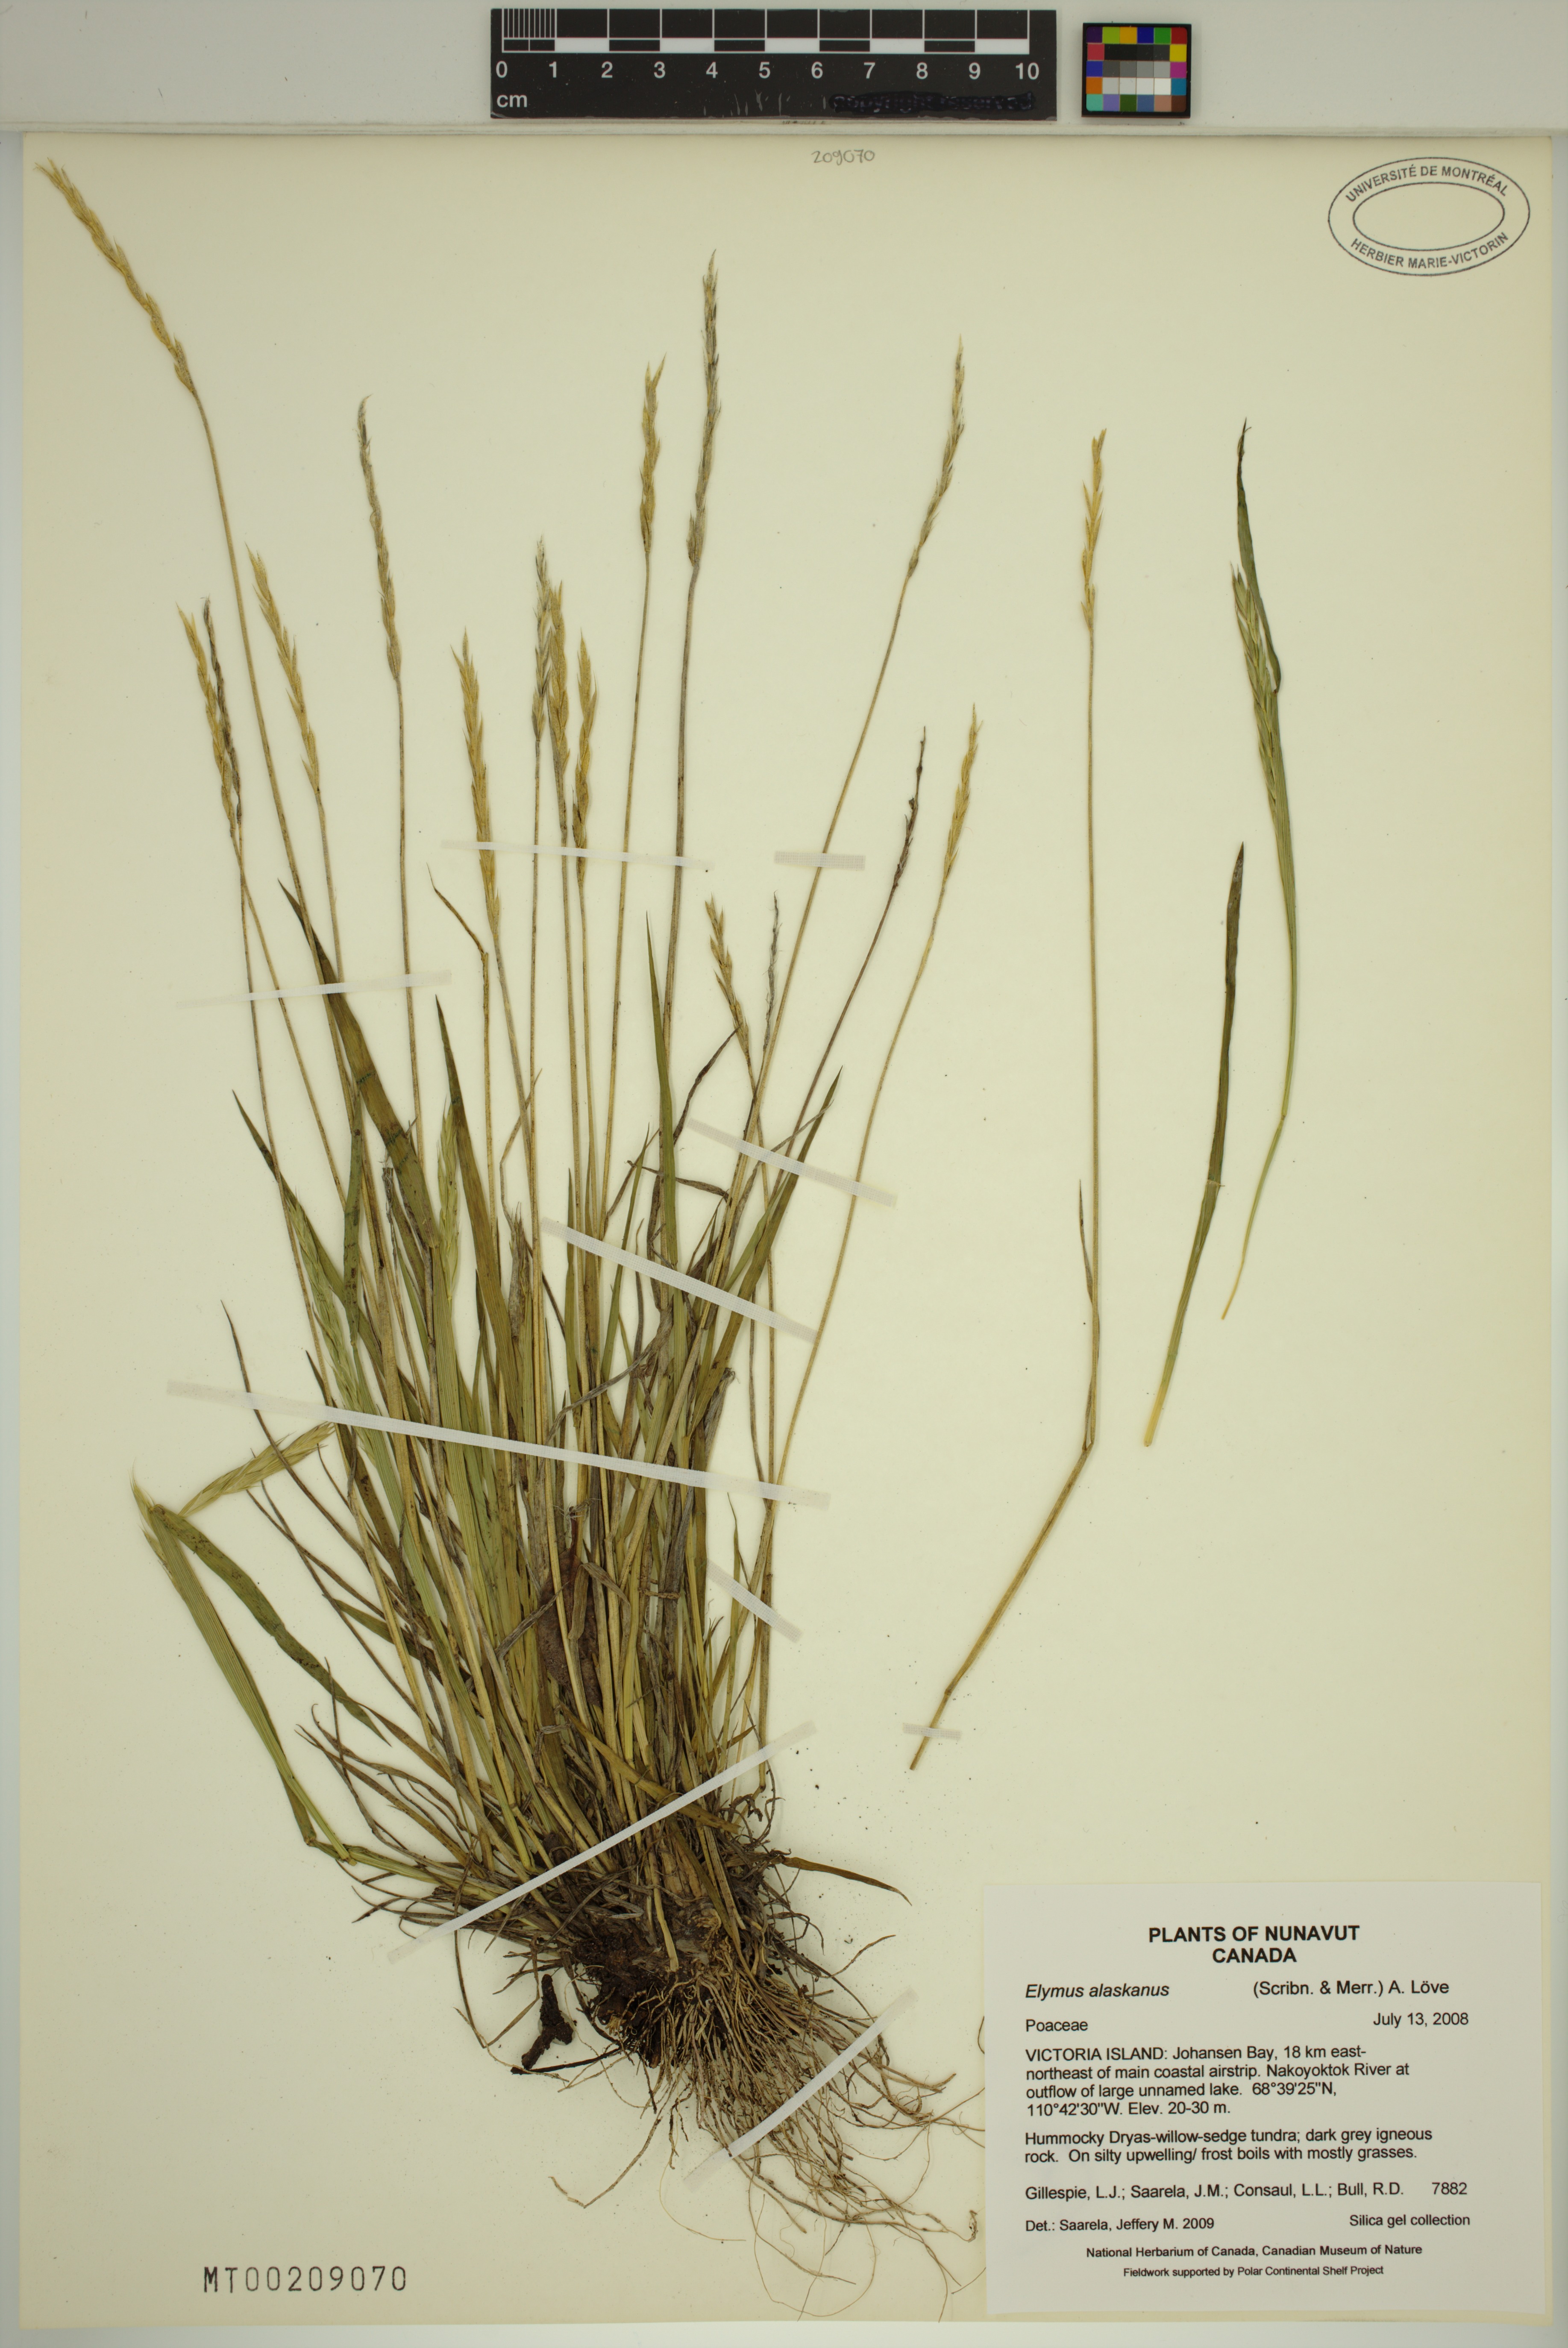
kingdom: Plantae
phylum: Tracheophyta
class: Liliopsida
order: Poales
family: Poaceae
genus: Elymus
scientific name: Elymus alaskanus
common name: Alaska wheatgrass
